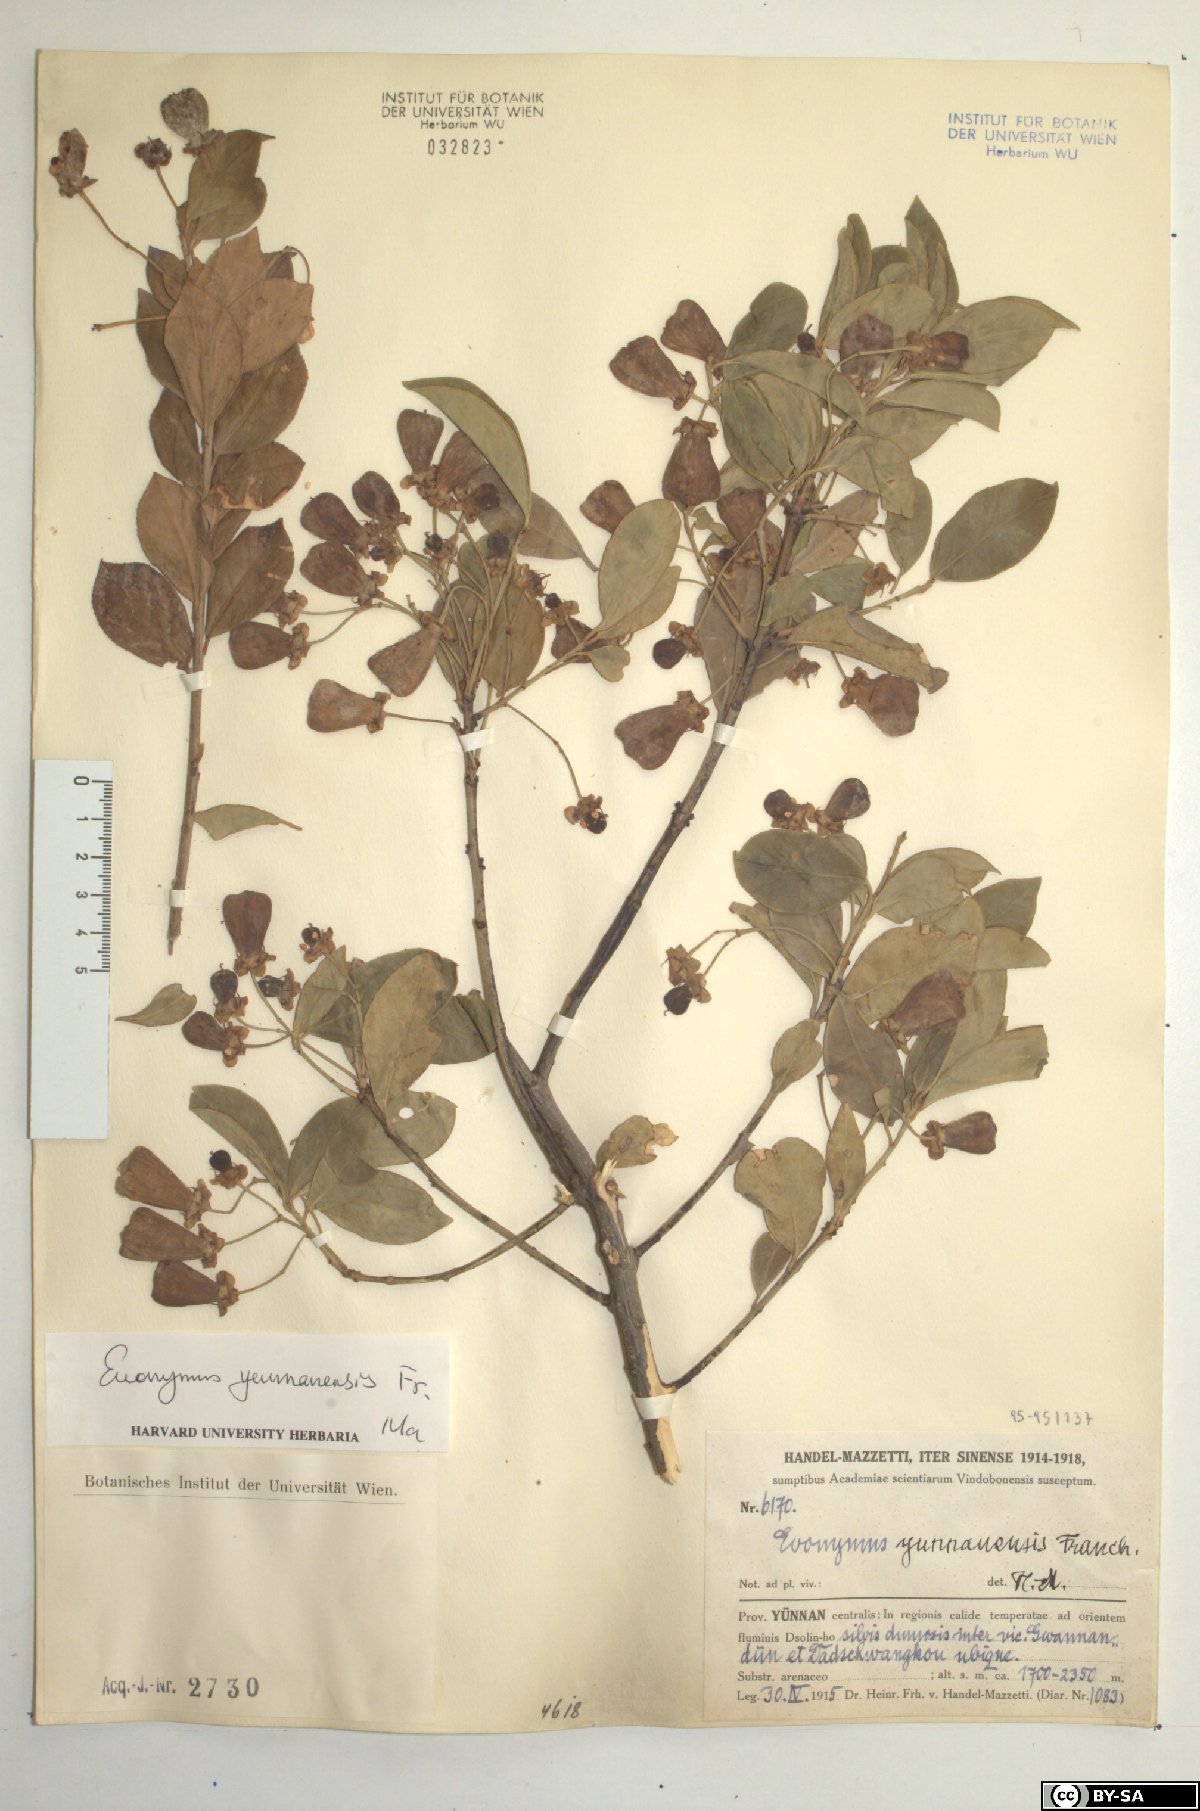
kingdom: Plantae
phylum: Tracheophyta
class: Magnoliopsida
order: Celastrales
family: Celastraceae
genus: Euonymus
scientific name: Euonymus yunnanensis
